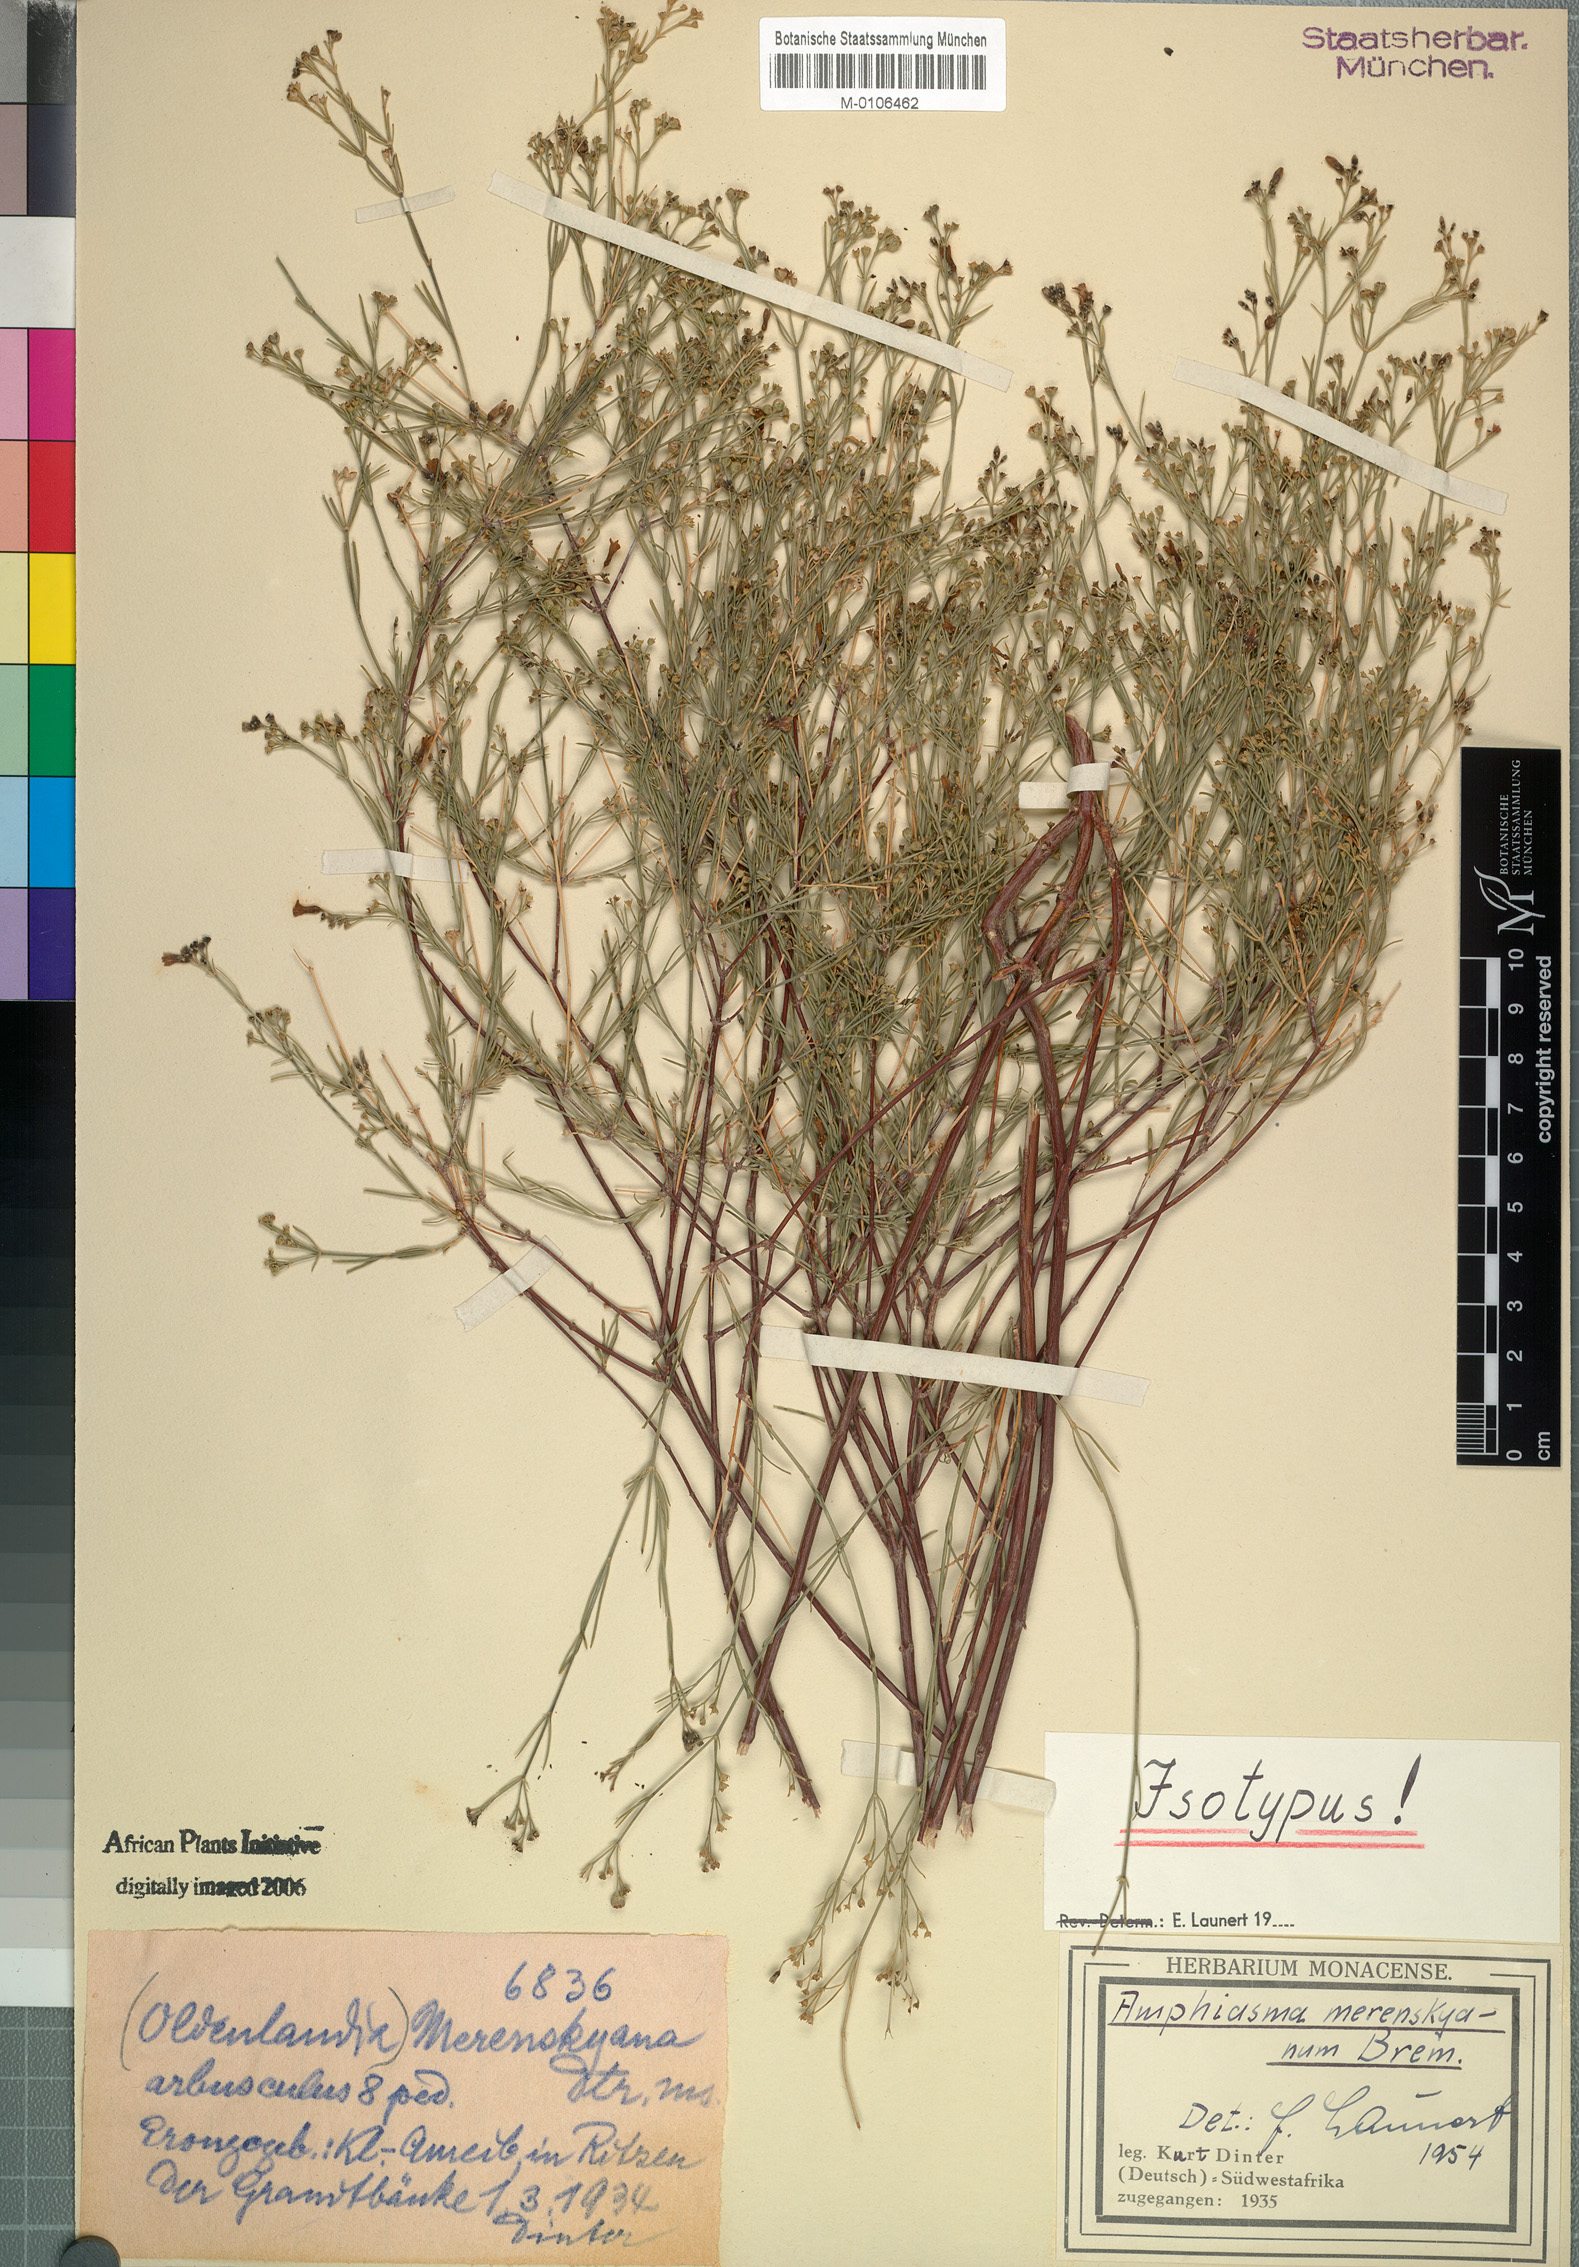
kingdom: Plantae
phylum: Tracheophyta
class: Magnoliopsida
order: Gentianales
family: Rubiaceae
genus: Amphiasma
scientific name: Amphiasma merenskyanum
